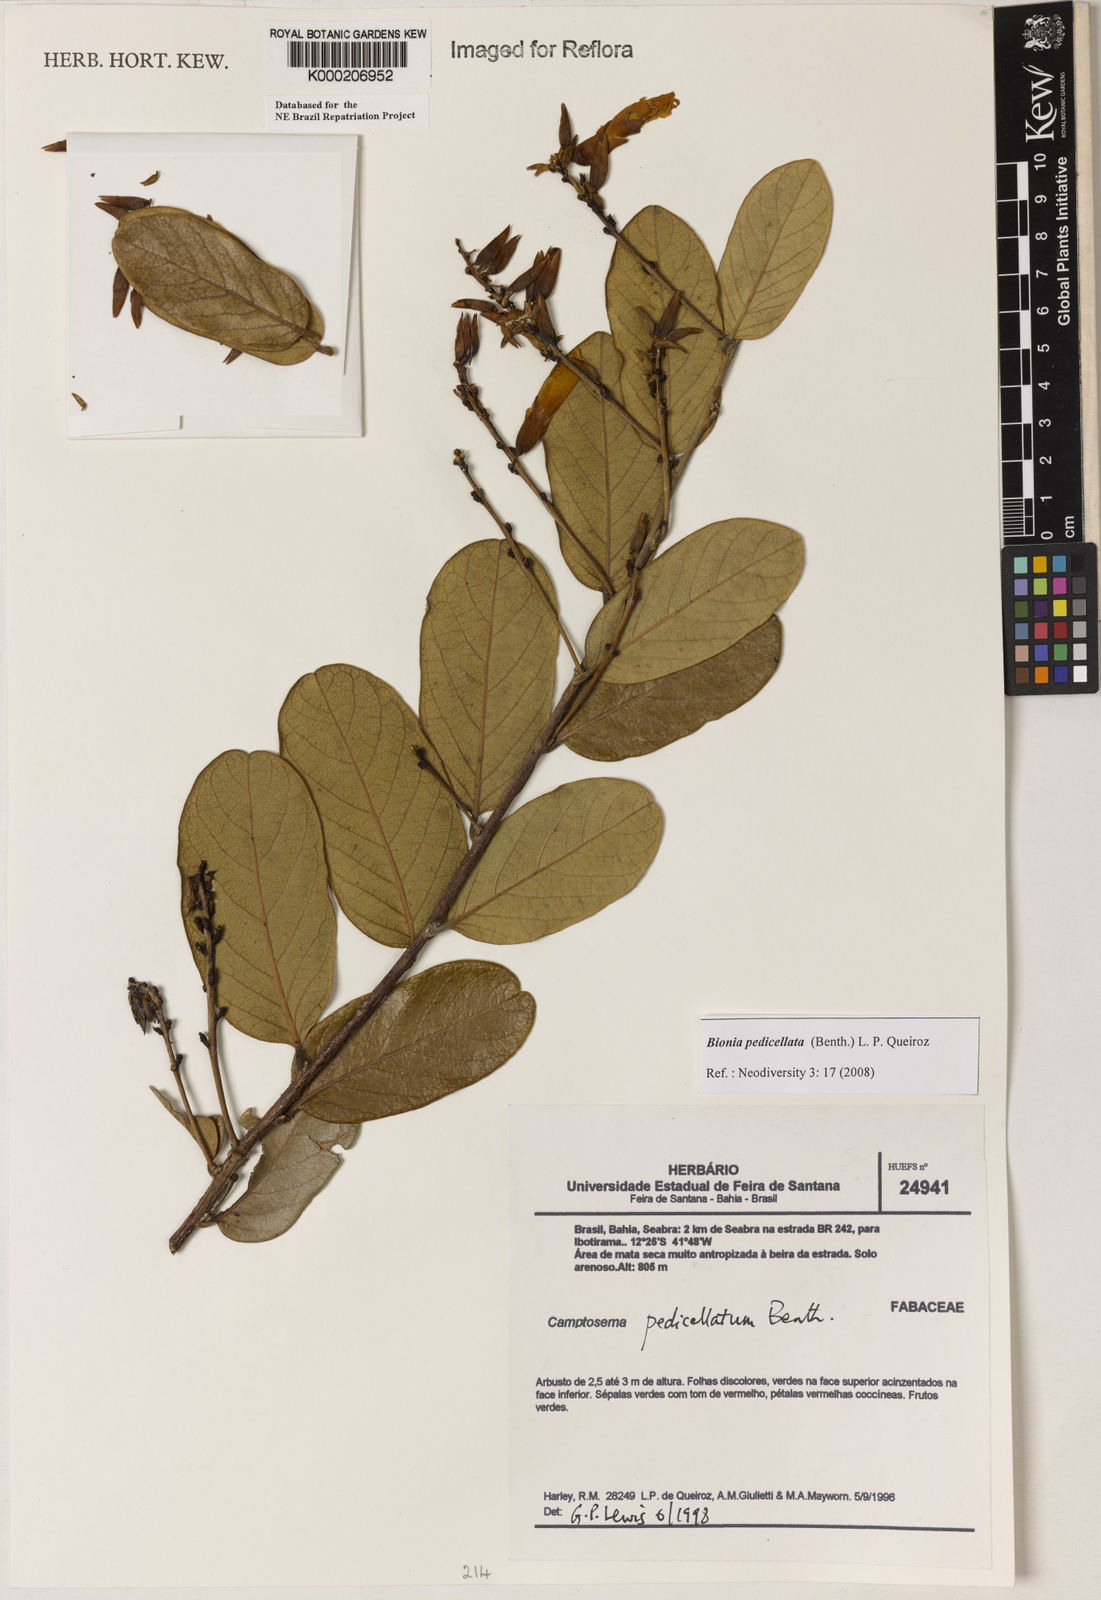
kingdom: Plantae
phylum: Tracheophyta
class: Magnoliopsida
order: Fabales
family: Fabaceae
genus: Camptosema
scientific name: Camptosema pedicellatum
